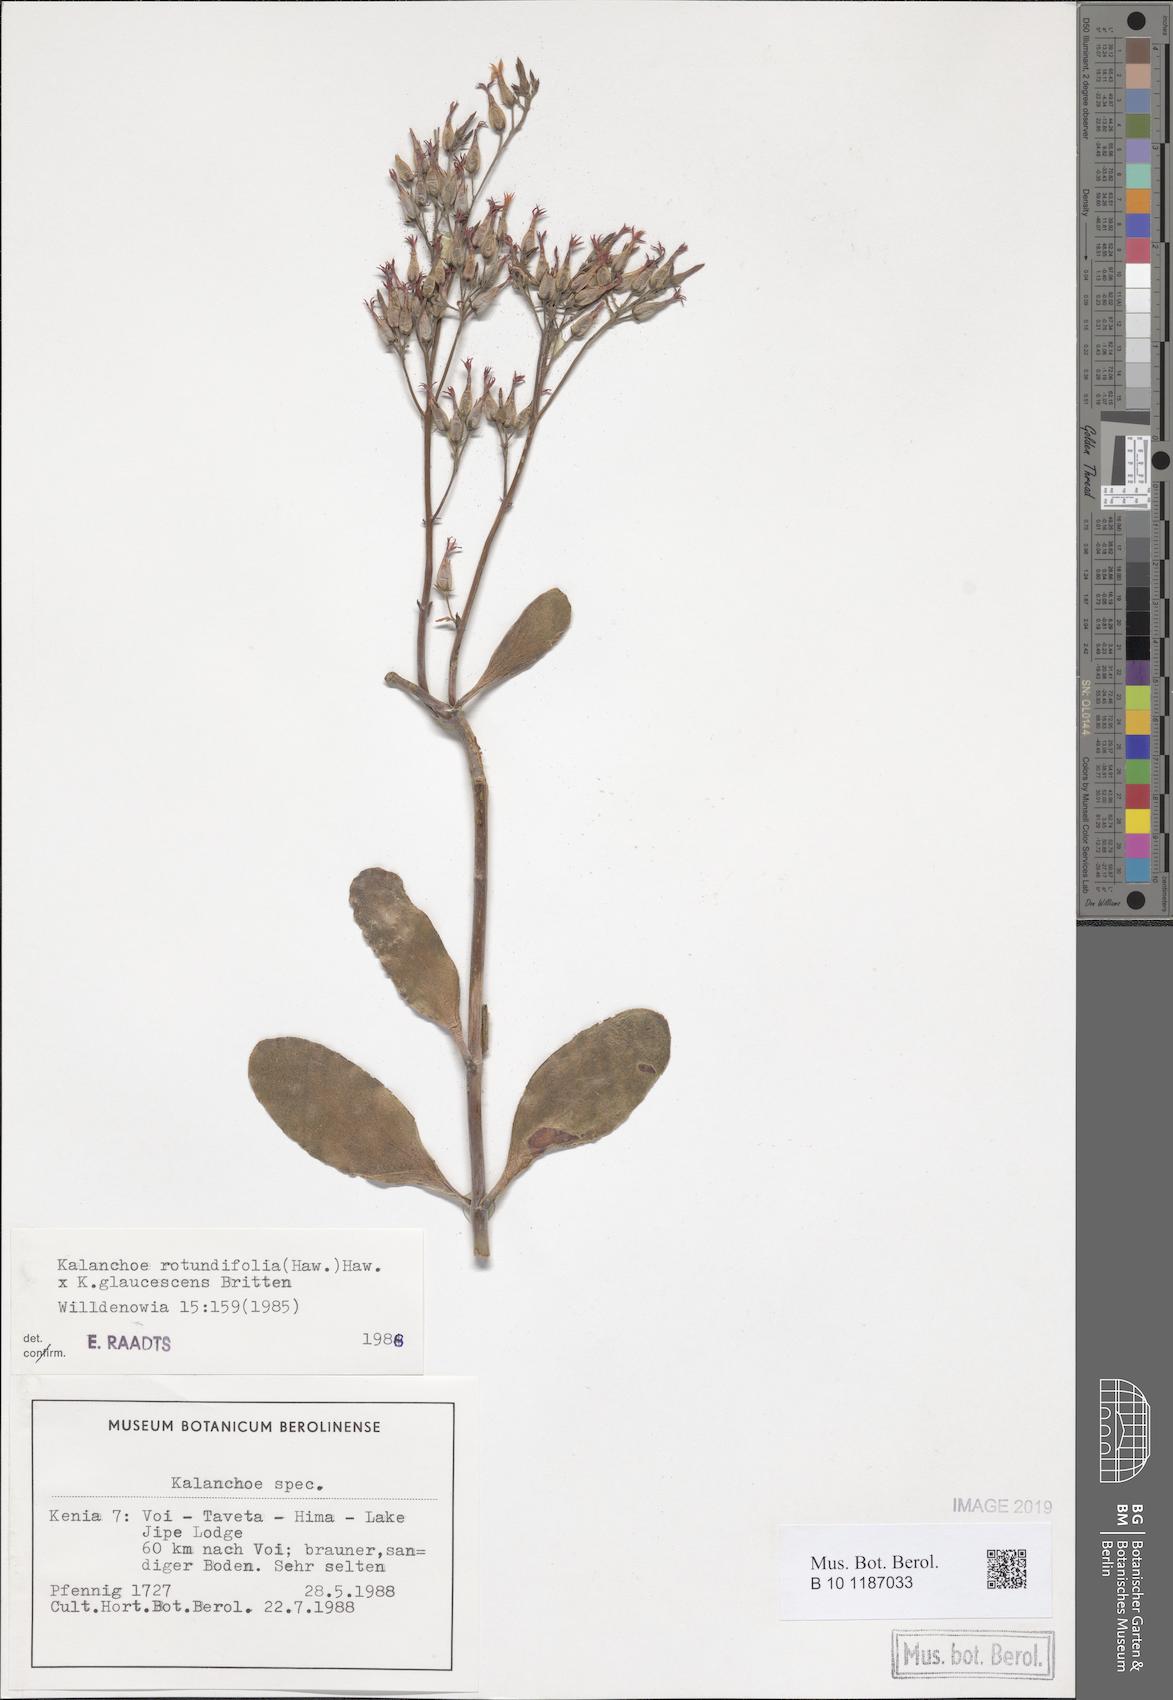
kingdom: Plantae
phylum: Tracheophyta
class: Magnoliopsida
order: Saxifragales
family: Crassulaceae
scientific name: Crassulaceae
